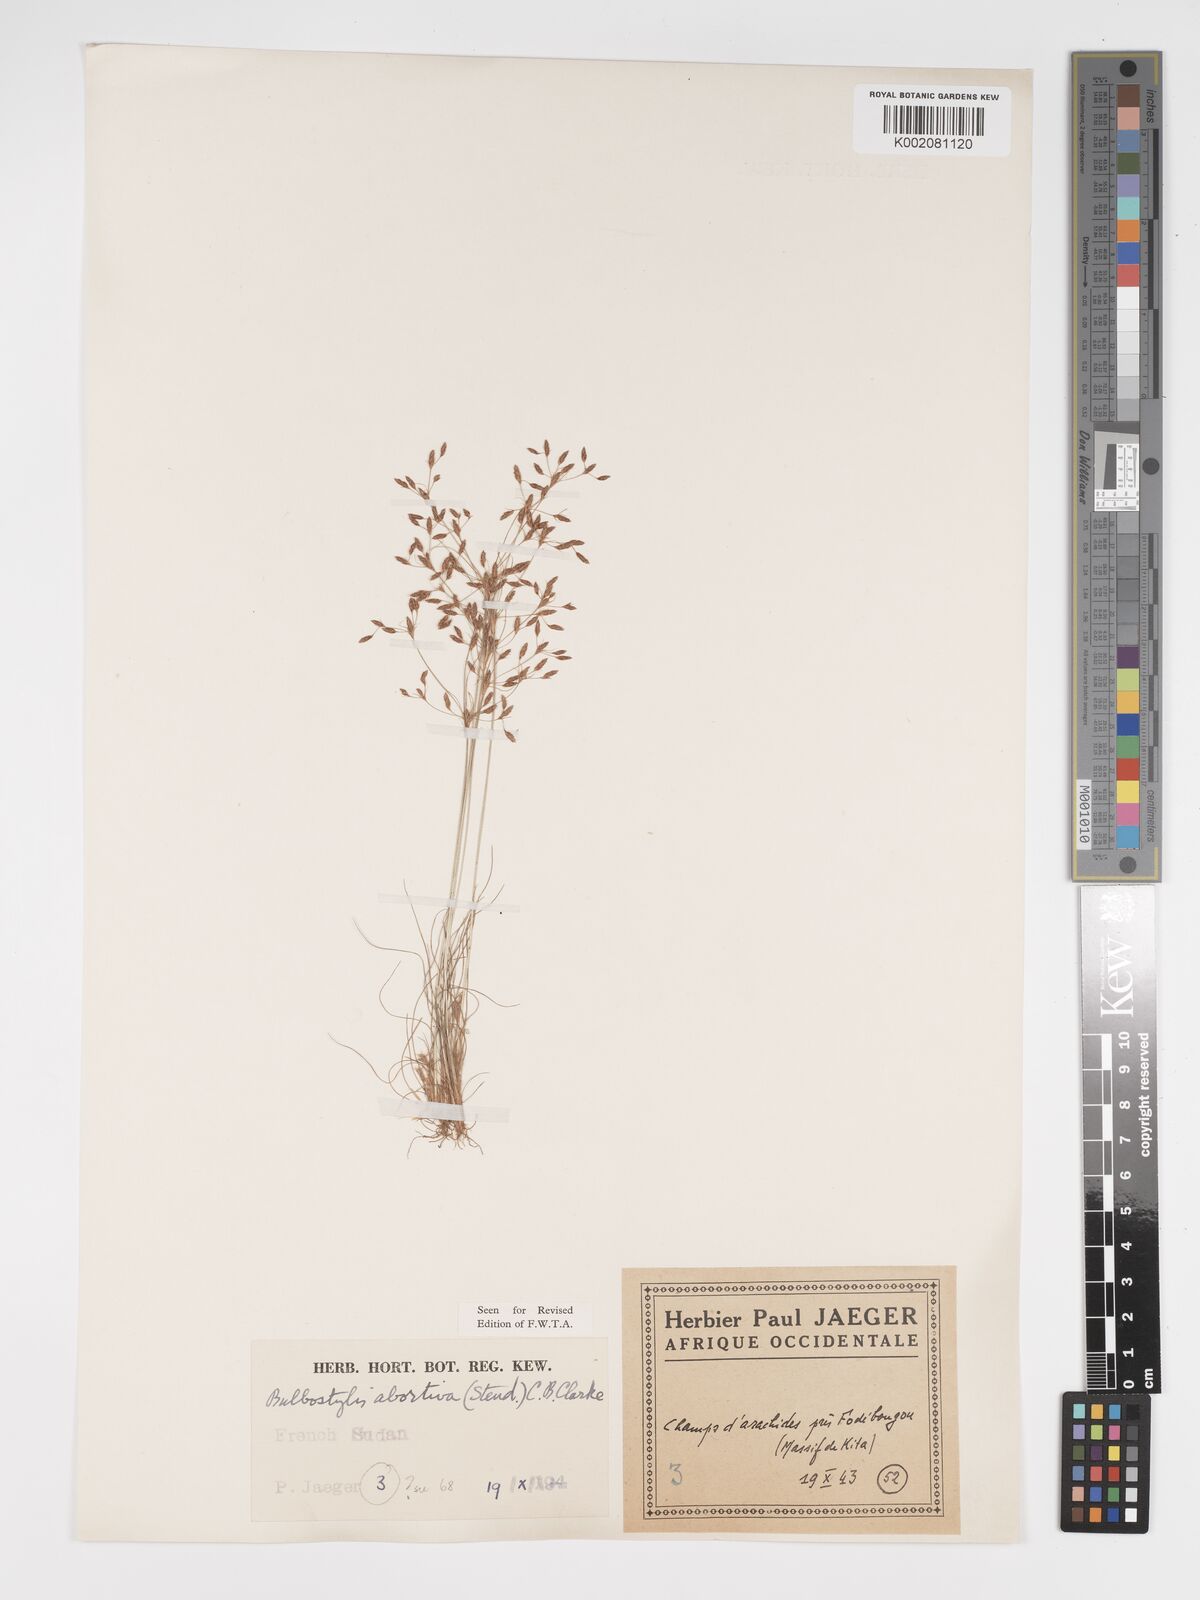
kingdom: Plantae
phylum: Tracheophyta
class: Liliopsida
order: Poales
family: Cyperaceae
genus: Bulbostylis
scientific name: Bulbostylis abortiva
